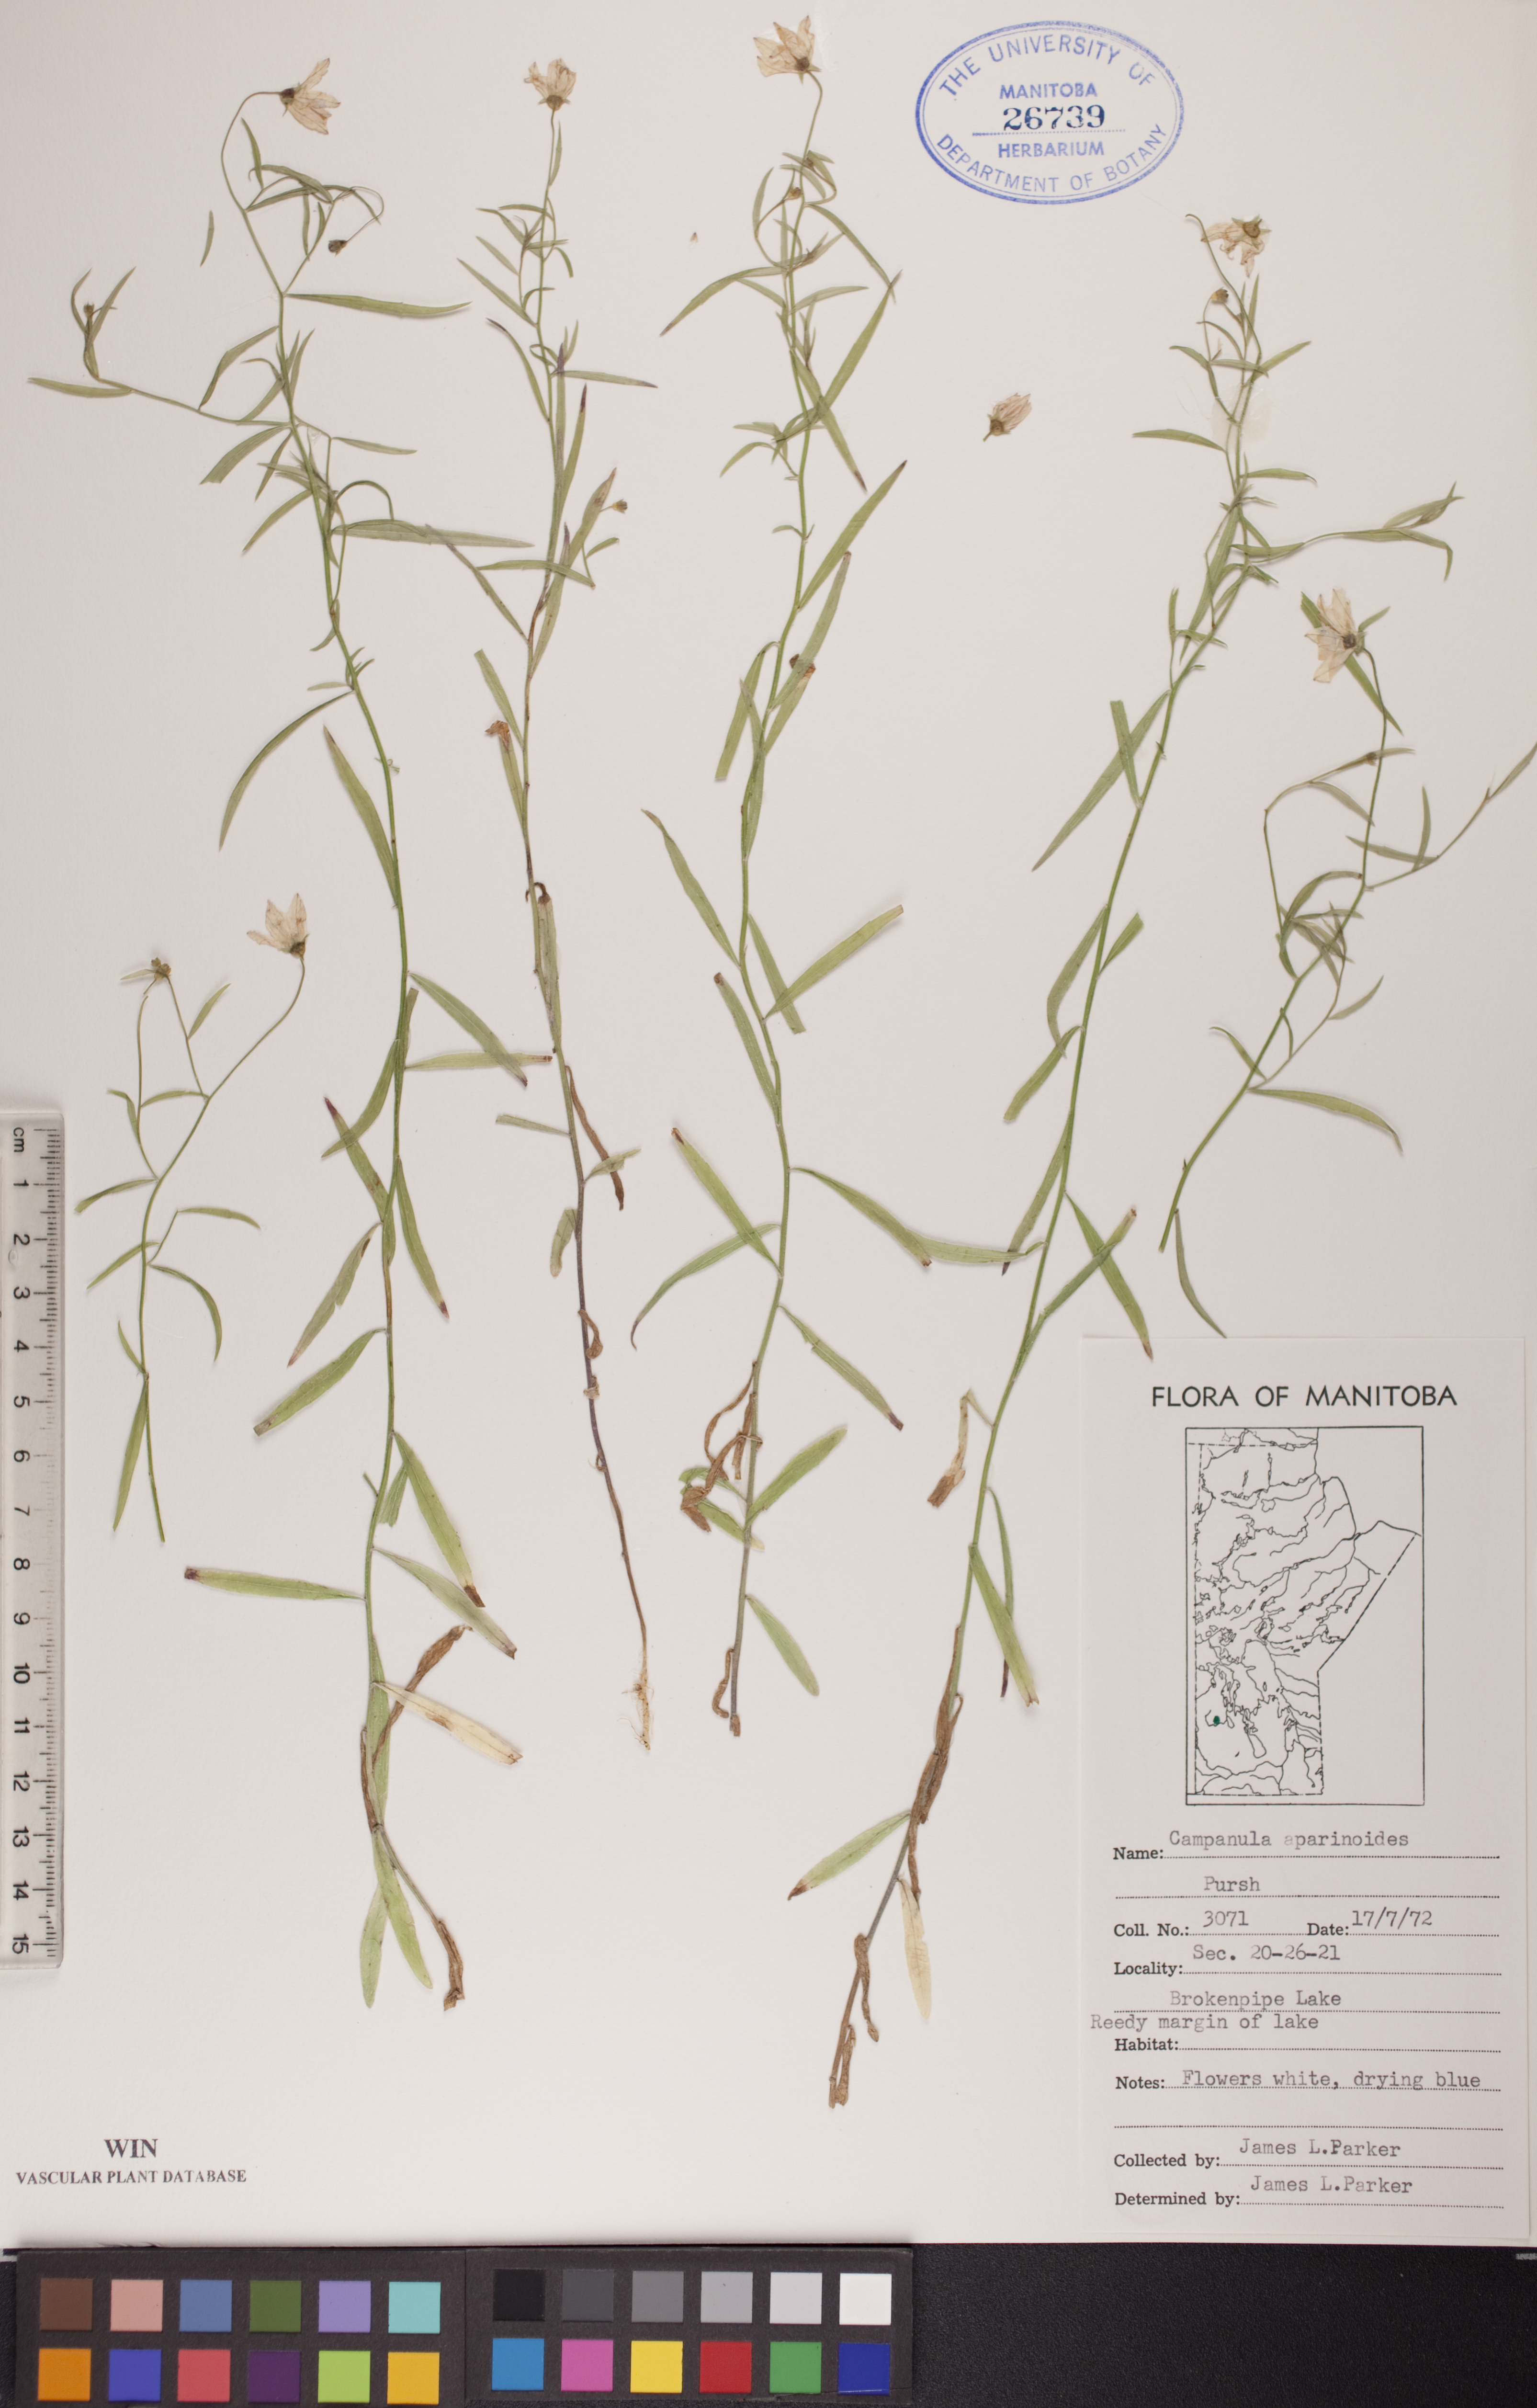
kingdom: Plantae
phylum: Tracheophyta
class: Magnoliopsida
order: Asterales
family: Campanulaceae
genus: Palustricodon
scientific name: Palustricodon aparinoides
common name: Bedstraw bellflower
